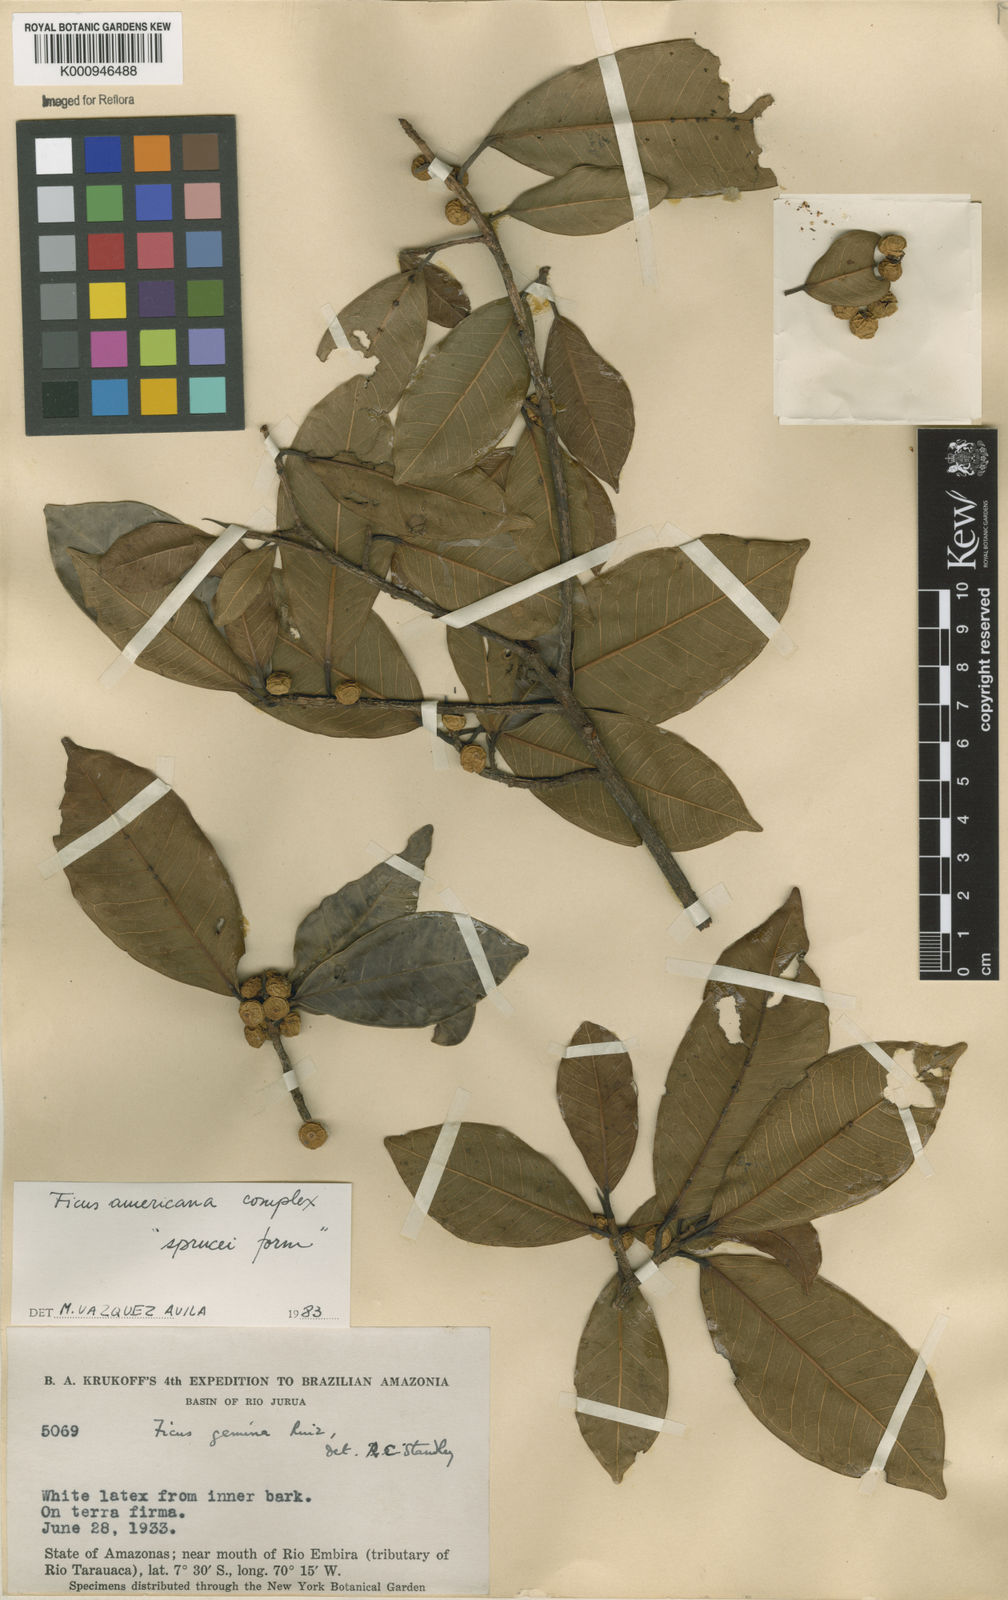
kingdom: Plantae
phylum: Tracheophyta
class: Magnoliopsida
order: Rosales
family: Moraceae
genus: Ficus
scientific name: Ficus americana
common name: Jamaican cherry fig
